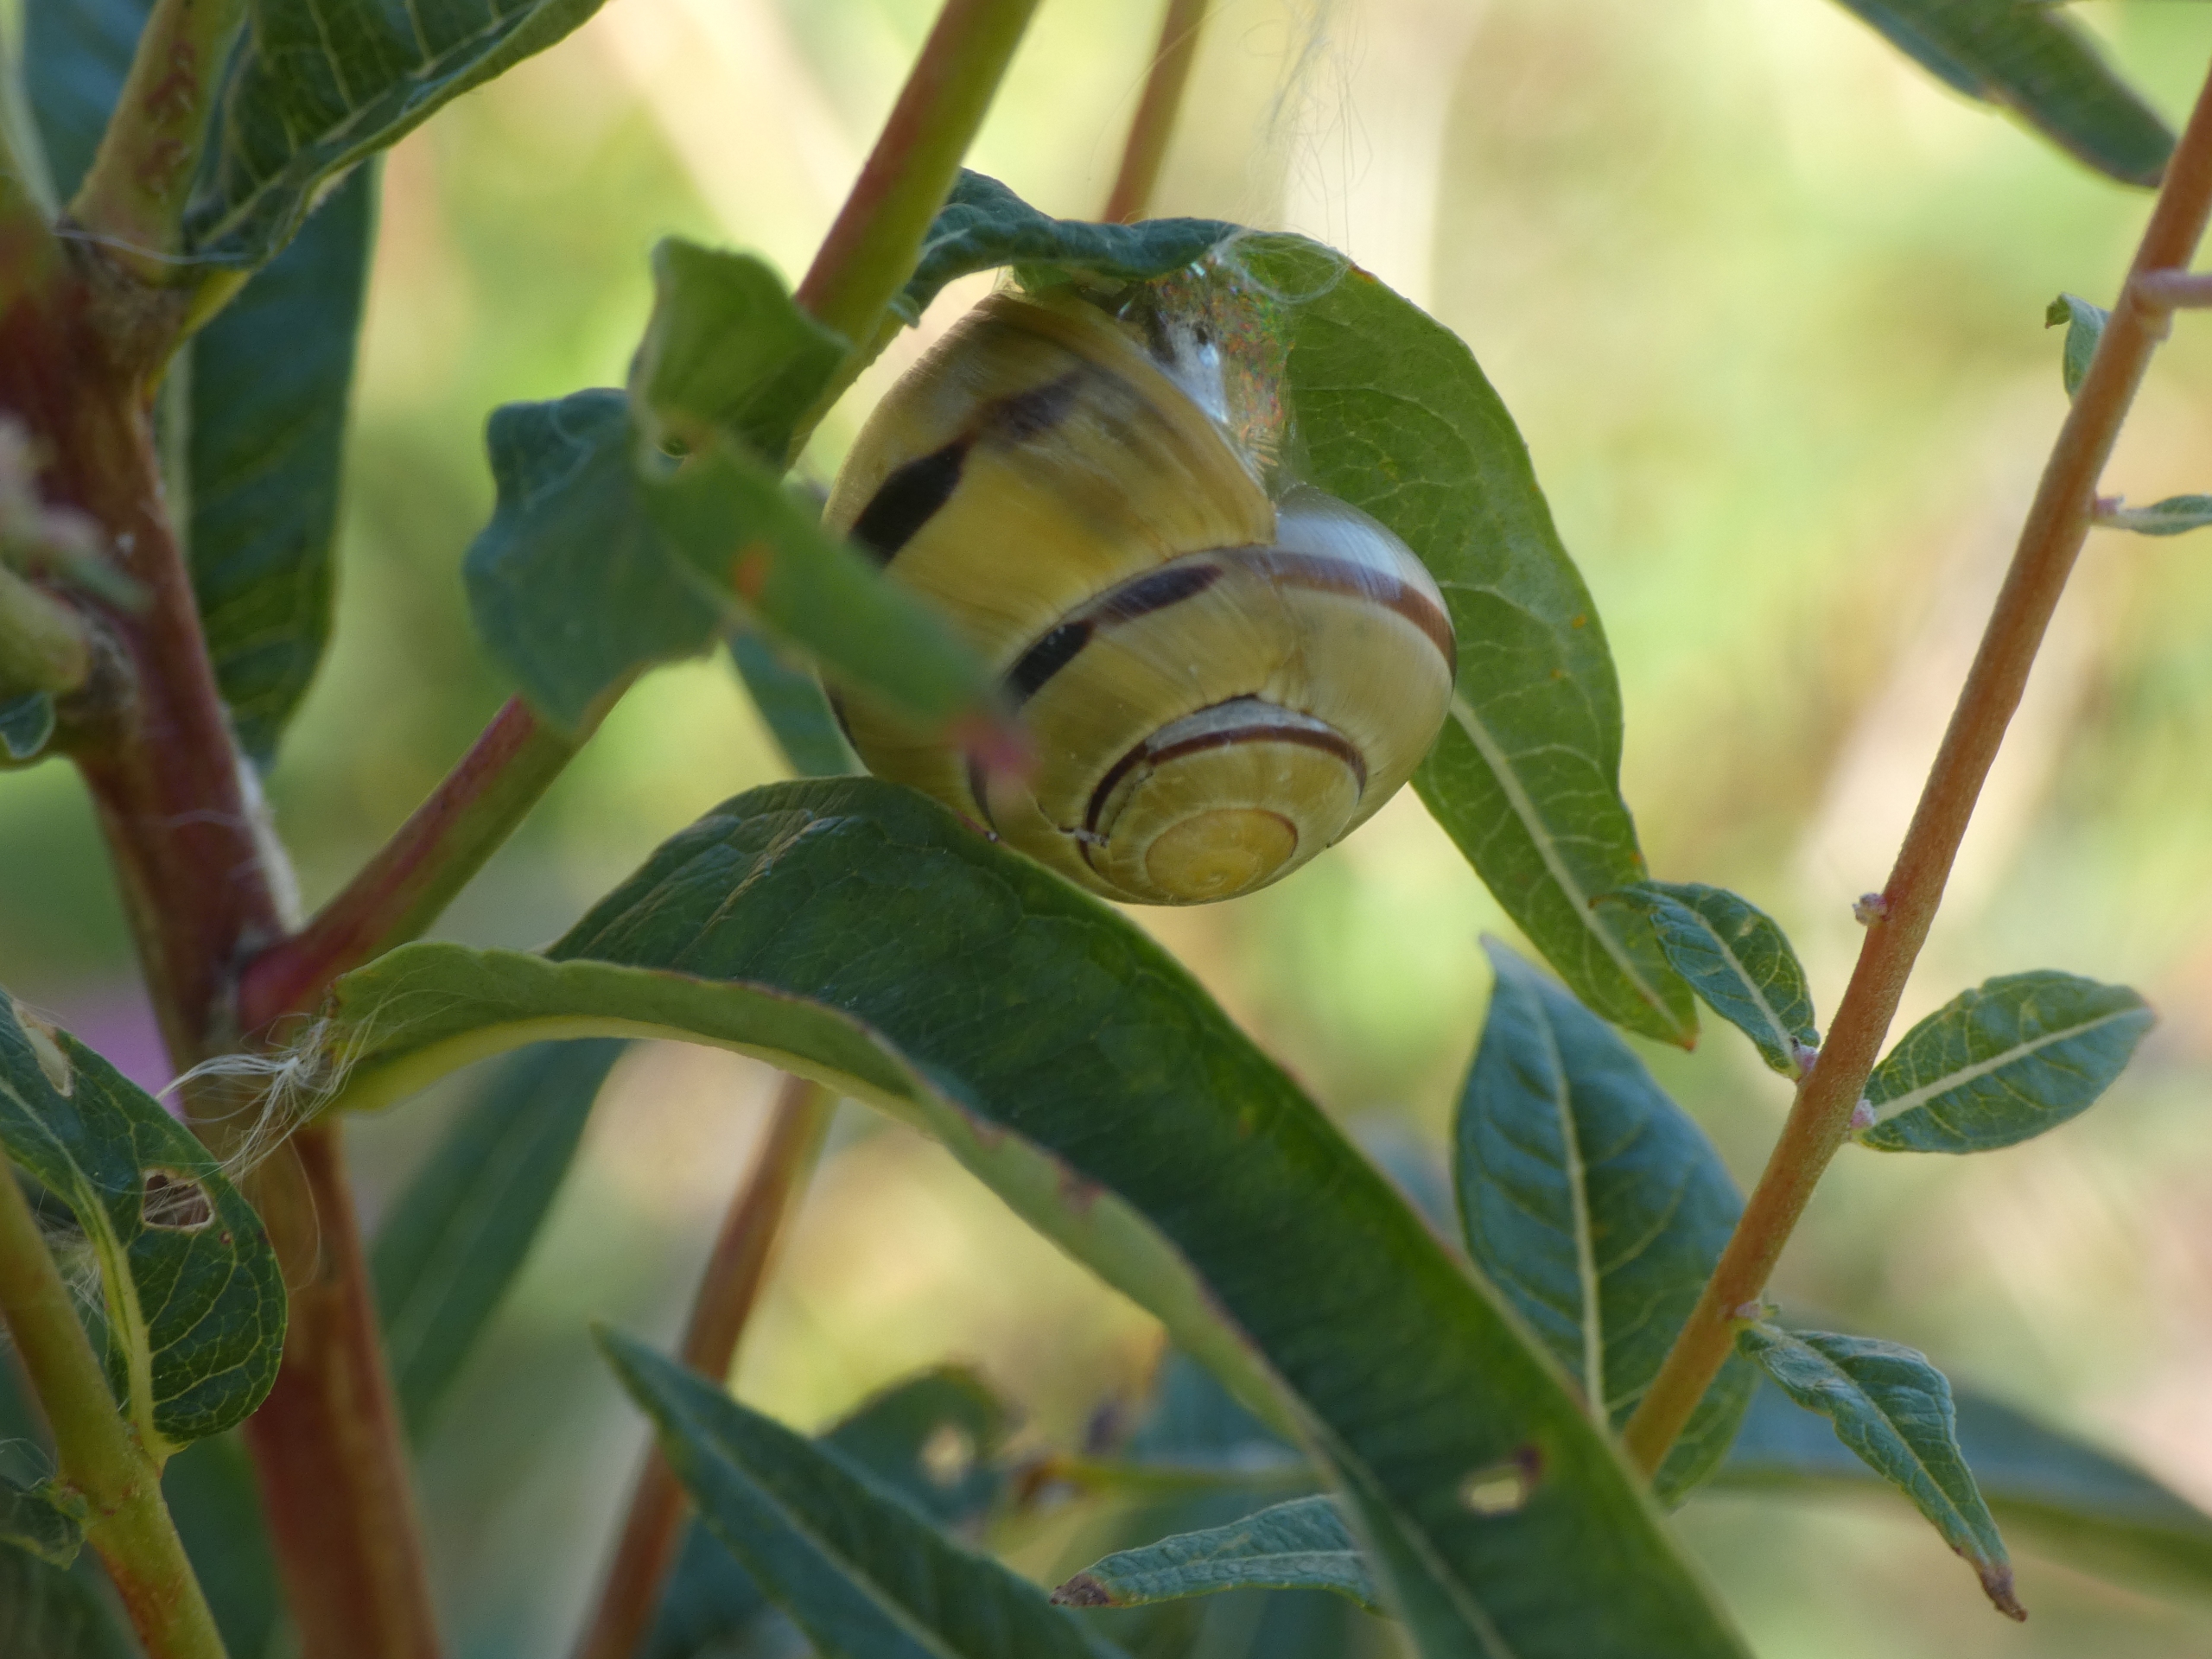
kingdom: Animalia
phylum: Mollusca
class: Gastropoda
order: Stylommatophora
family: Helicidae
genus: Cepaea
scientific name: Cepaea hortensis
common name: Havesnegl
